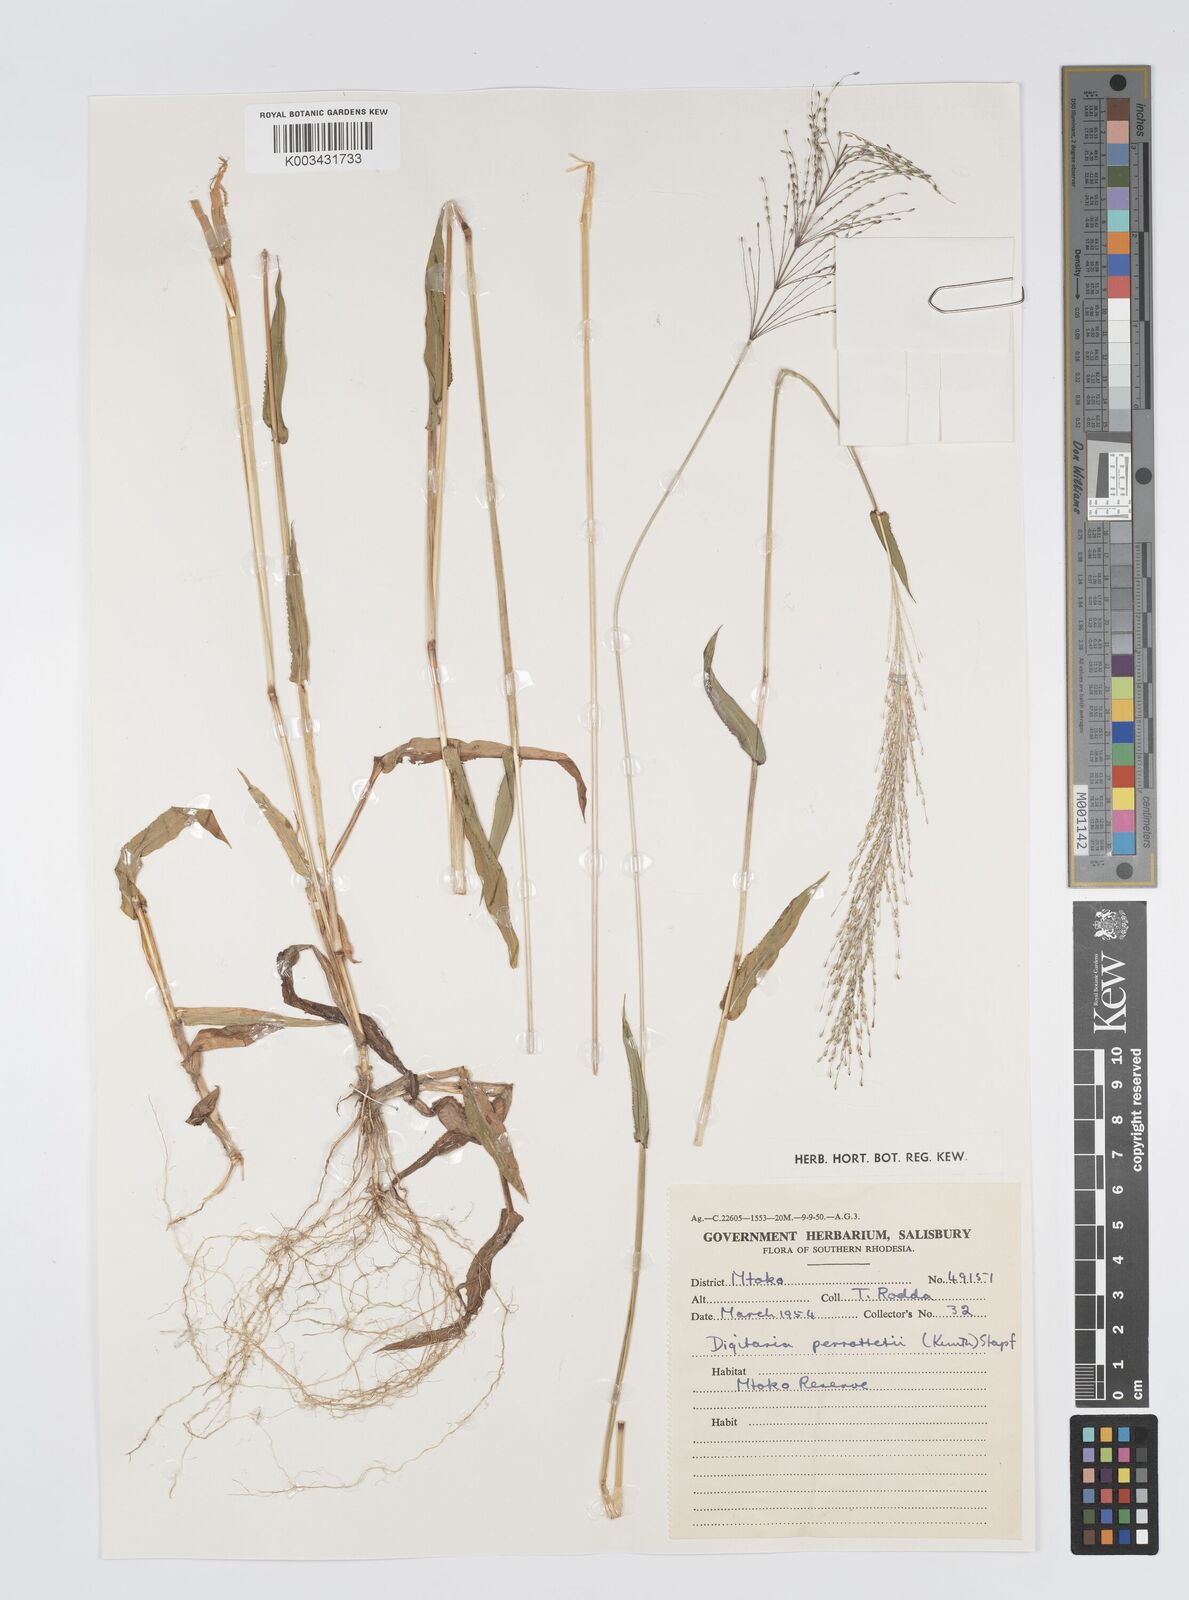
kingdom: Plantae
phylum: Tracheophyta
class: Liliopsida
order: Poales
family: Poaceae
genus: Digitaria
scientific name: Digitaria perrottetii
